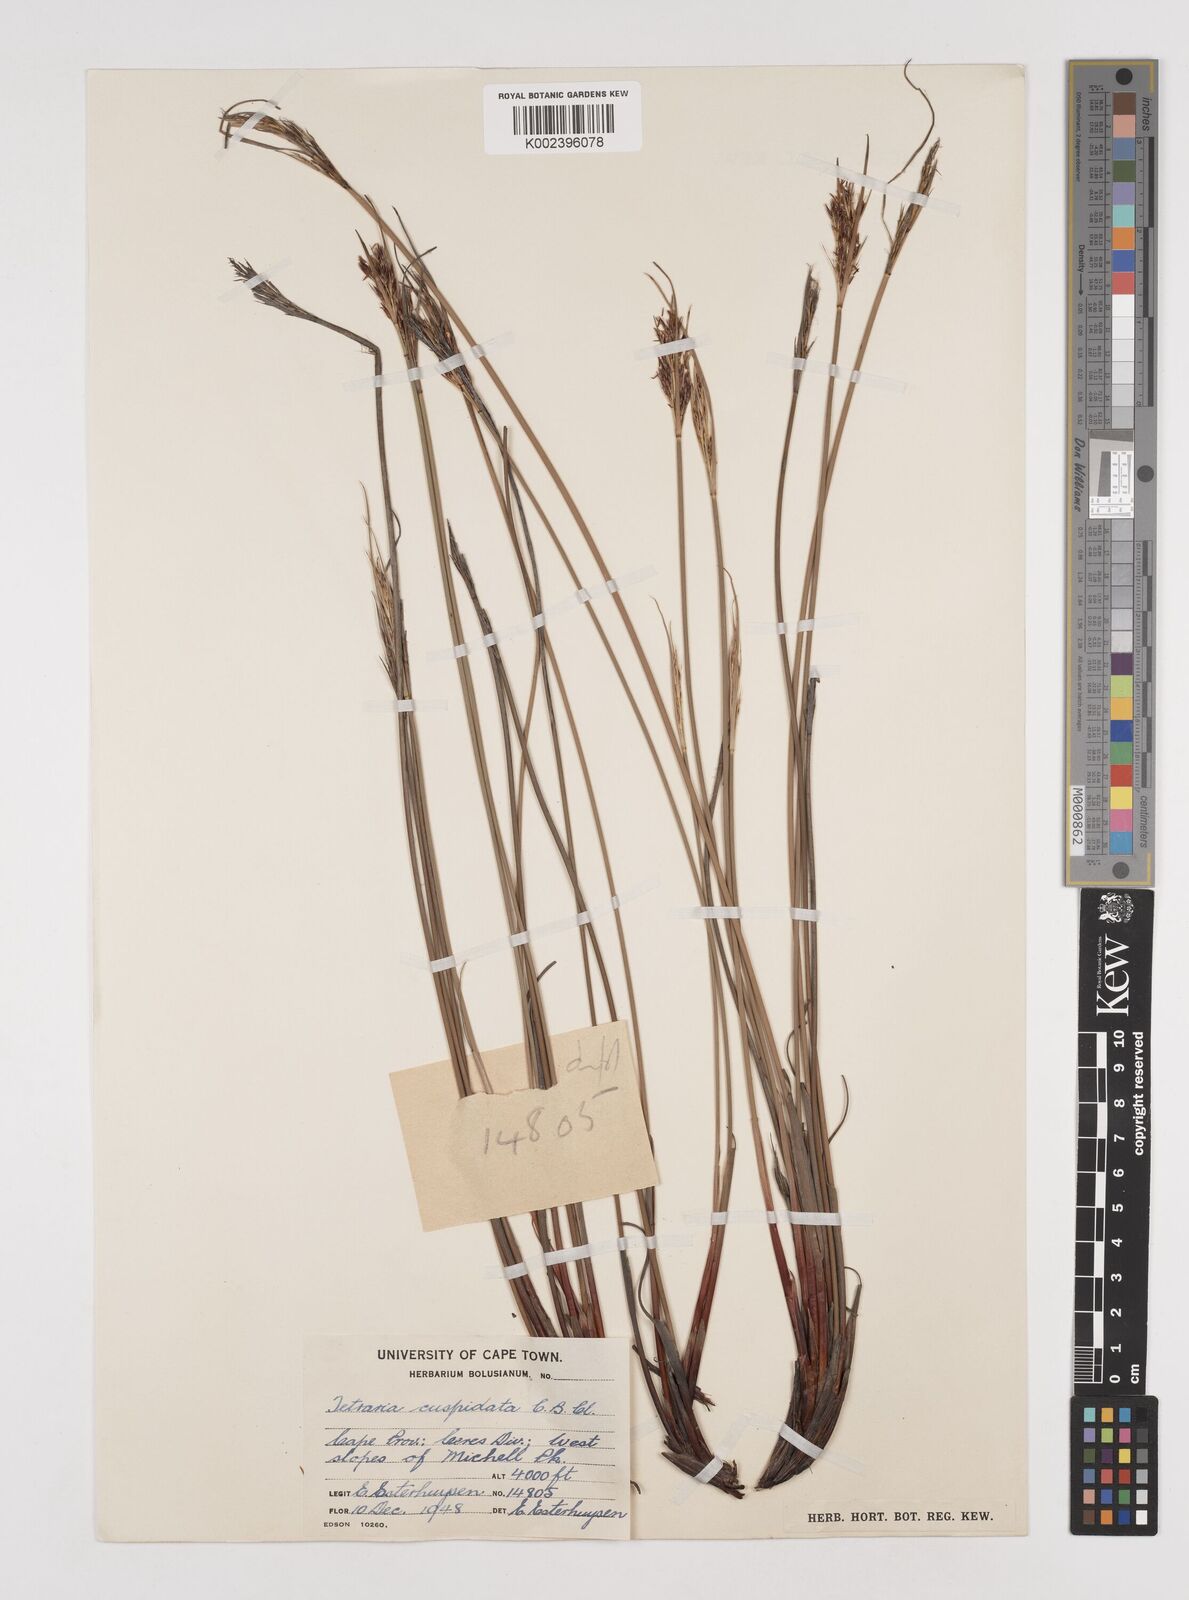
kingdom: Plantae
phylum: Tracheophyta
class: Liliopsida
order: Poales
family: Cyperaceae
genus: Schoenus
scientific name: Schoenus cuspidatus
